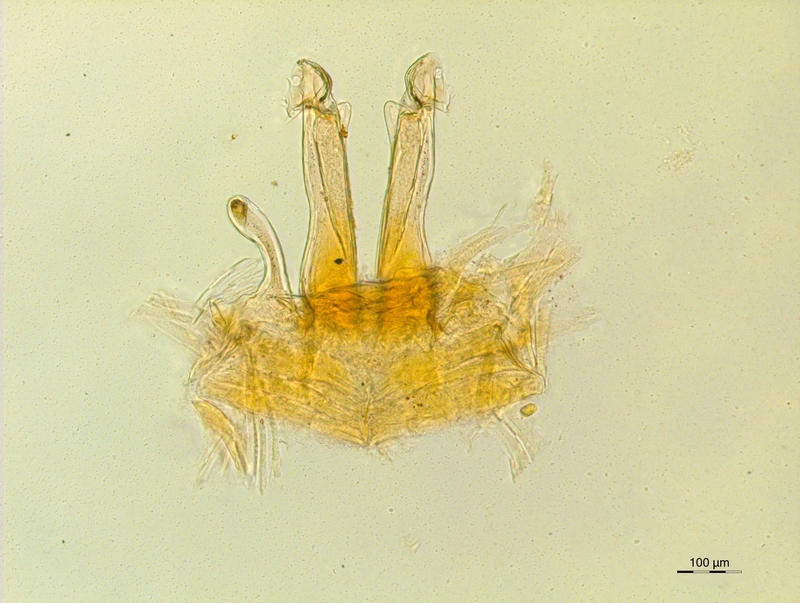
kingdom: Animalia
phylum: Arthropoda
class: Diplopoda
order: Chordeumatida
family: Craspedosomatidae
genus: Rothenbuehleria
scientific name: Rothenbuehleria tirolense
